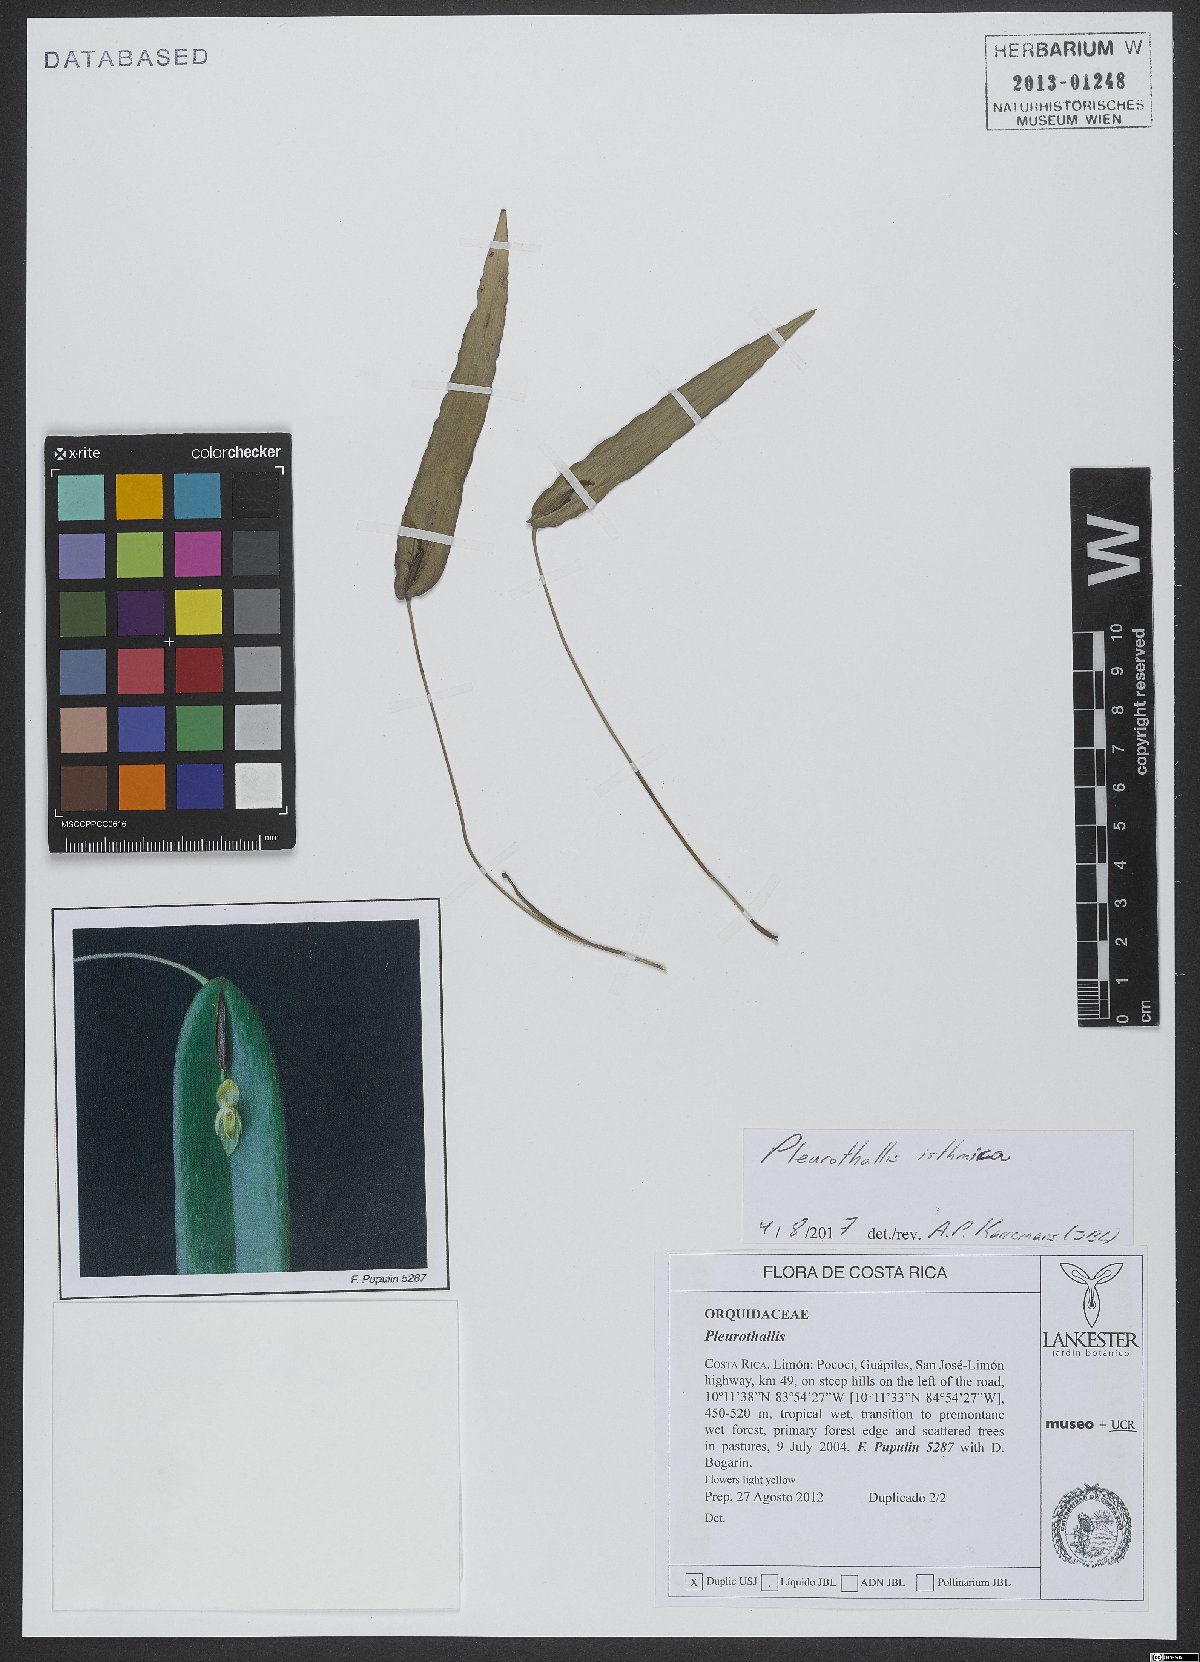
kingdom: Plantae
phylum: Tracheophyta
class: Liliopsida
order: Asparagales
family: Orchidaceae
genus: Pleurothallis
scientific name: Pleurothallis isthmica
